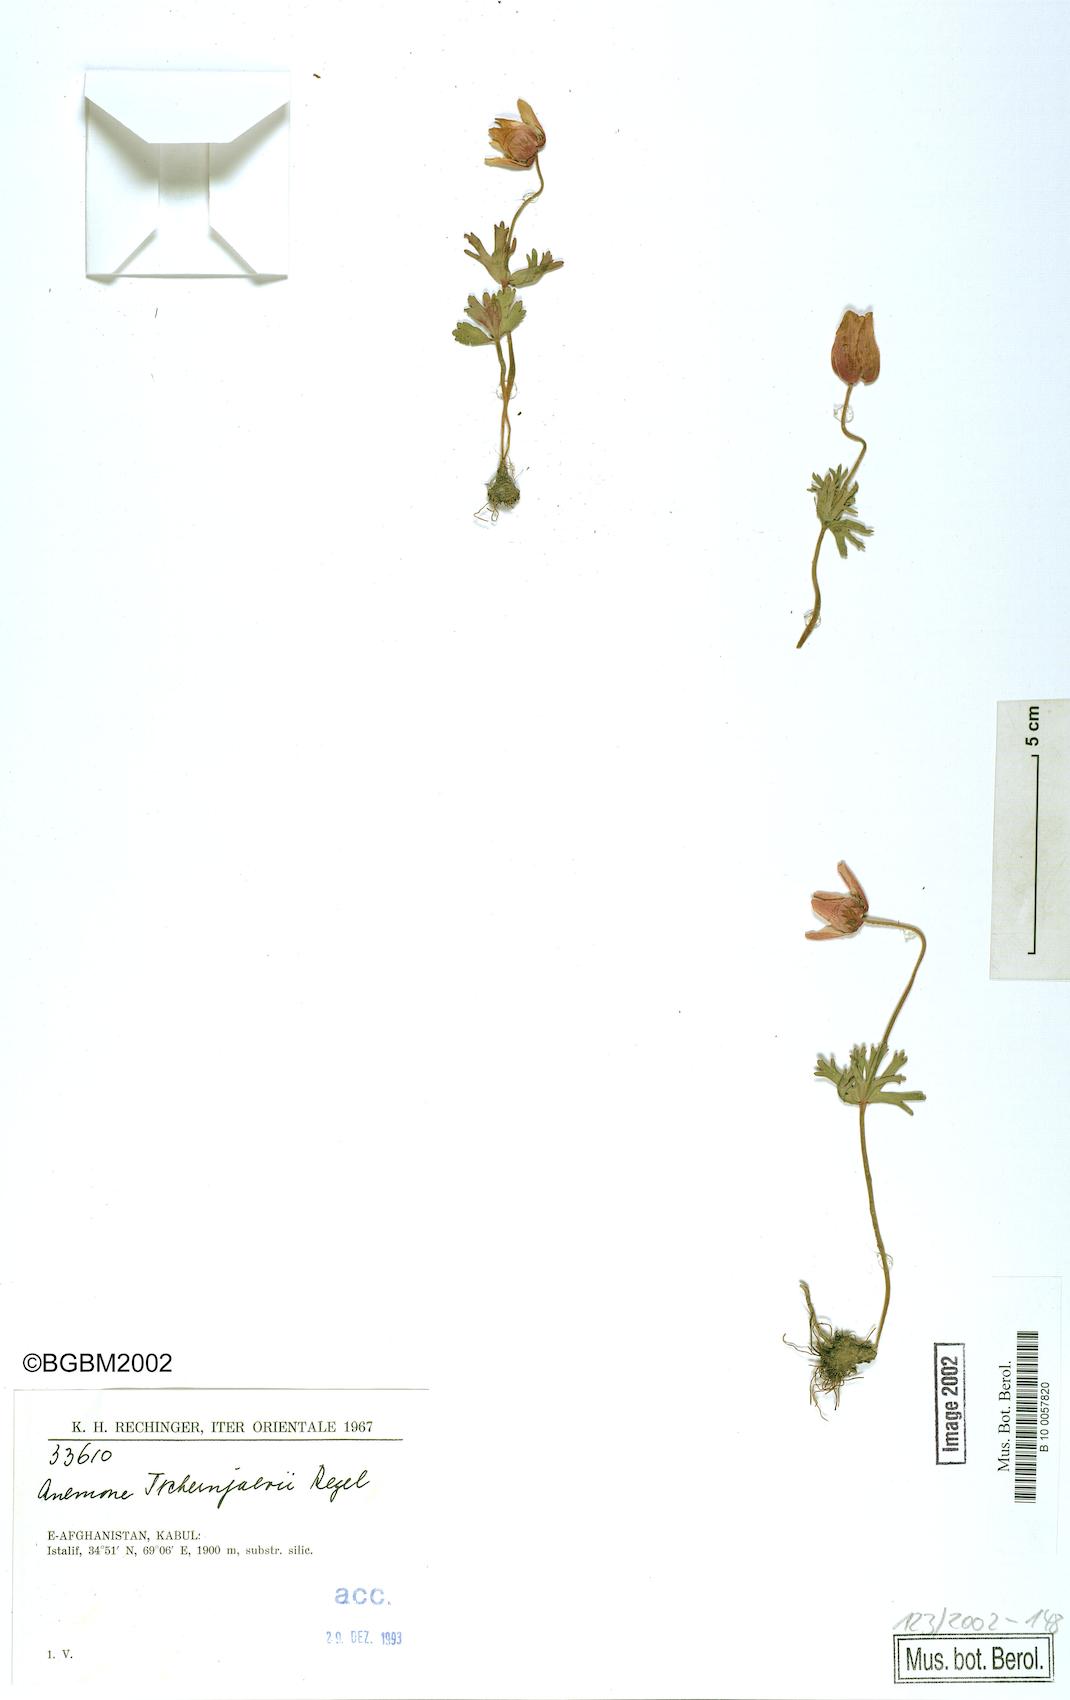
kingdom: Plantae
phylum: Tracheophyta
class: Magnoliopsida
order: Ranunculales
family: Ranunculaceae
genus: Anemone
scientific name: Anemone tschernaewii
